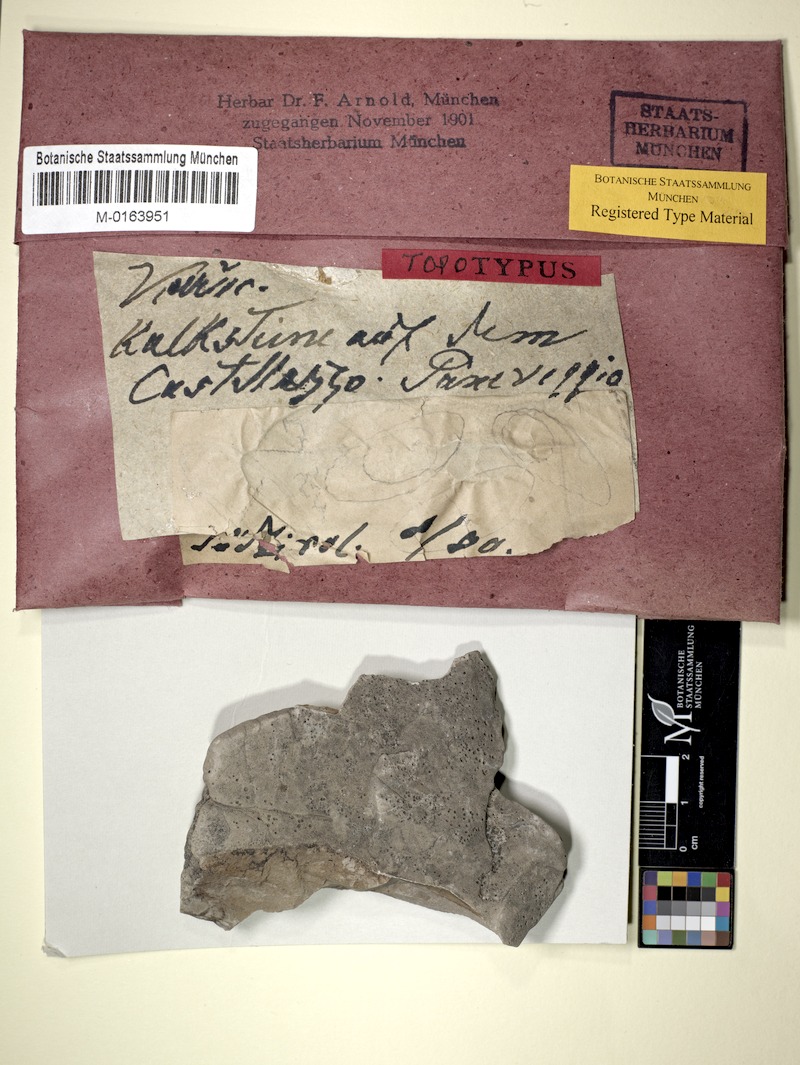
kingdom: Fungi
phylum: Ascomycota
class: Eurotiomycetes
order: Verrucariales
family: Verrucariaceae
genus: Verrucaria
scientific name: Verrucaria vicinalis
